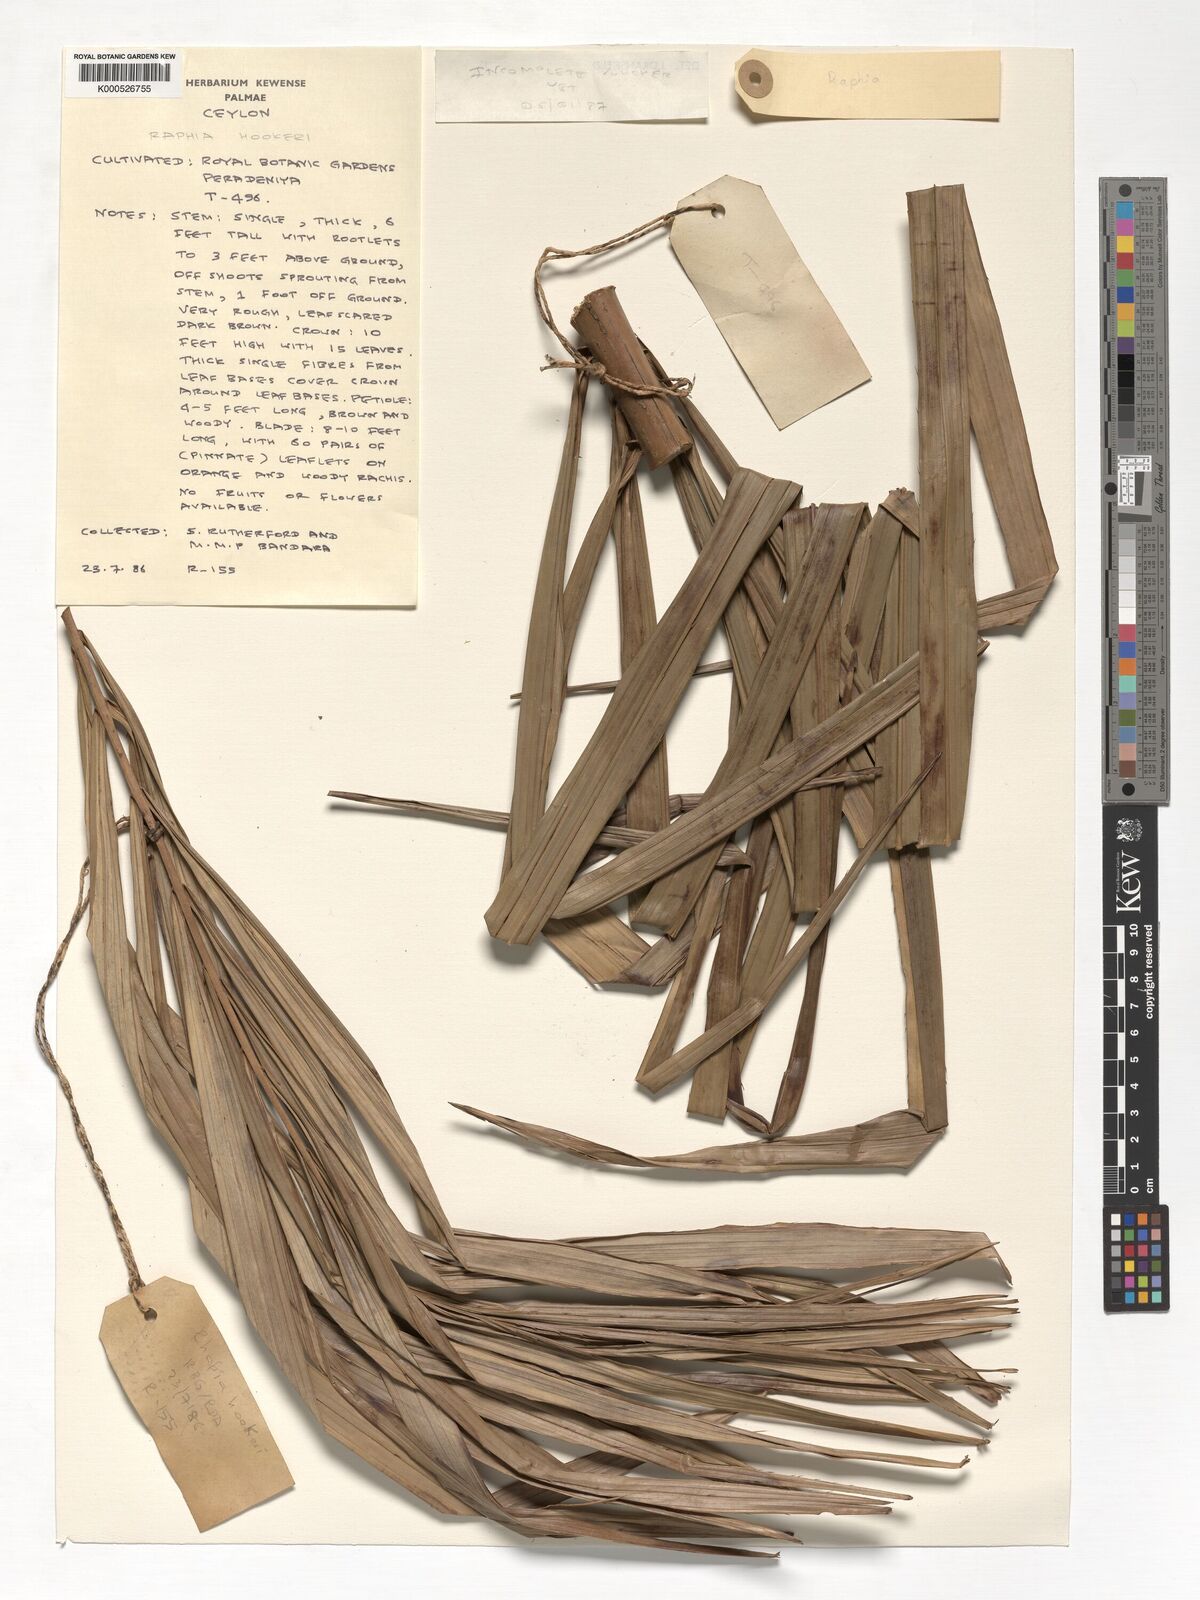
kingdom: Plantae
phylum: Tracheophyta
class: Liliopsida
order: Arecales
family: Arecaceae
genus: Raphia
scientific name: Raphia
